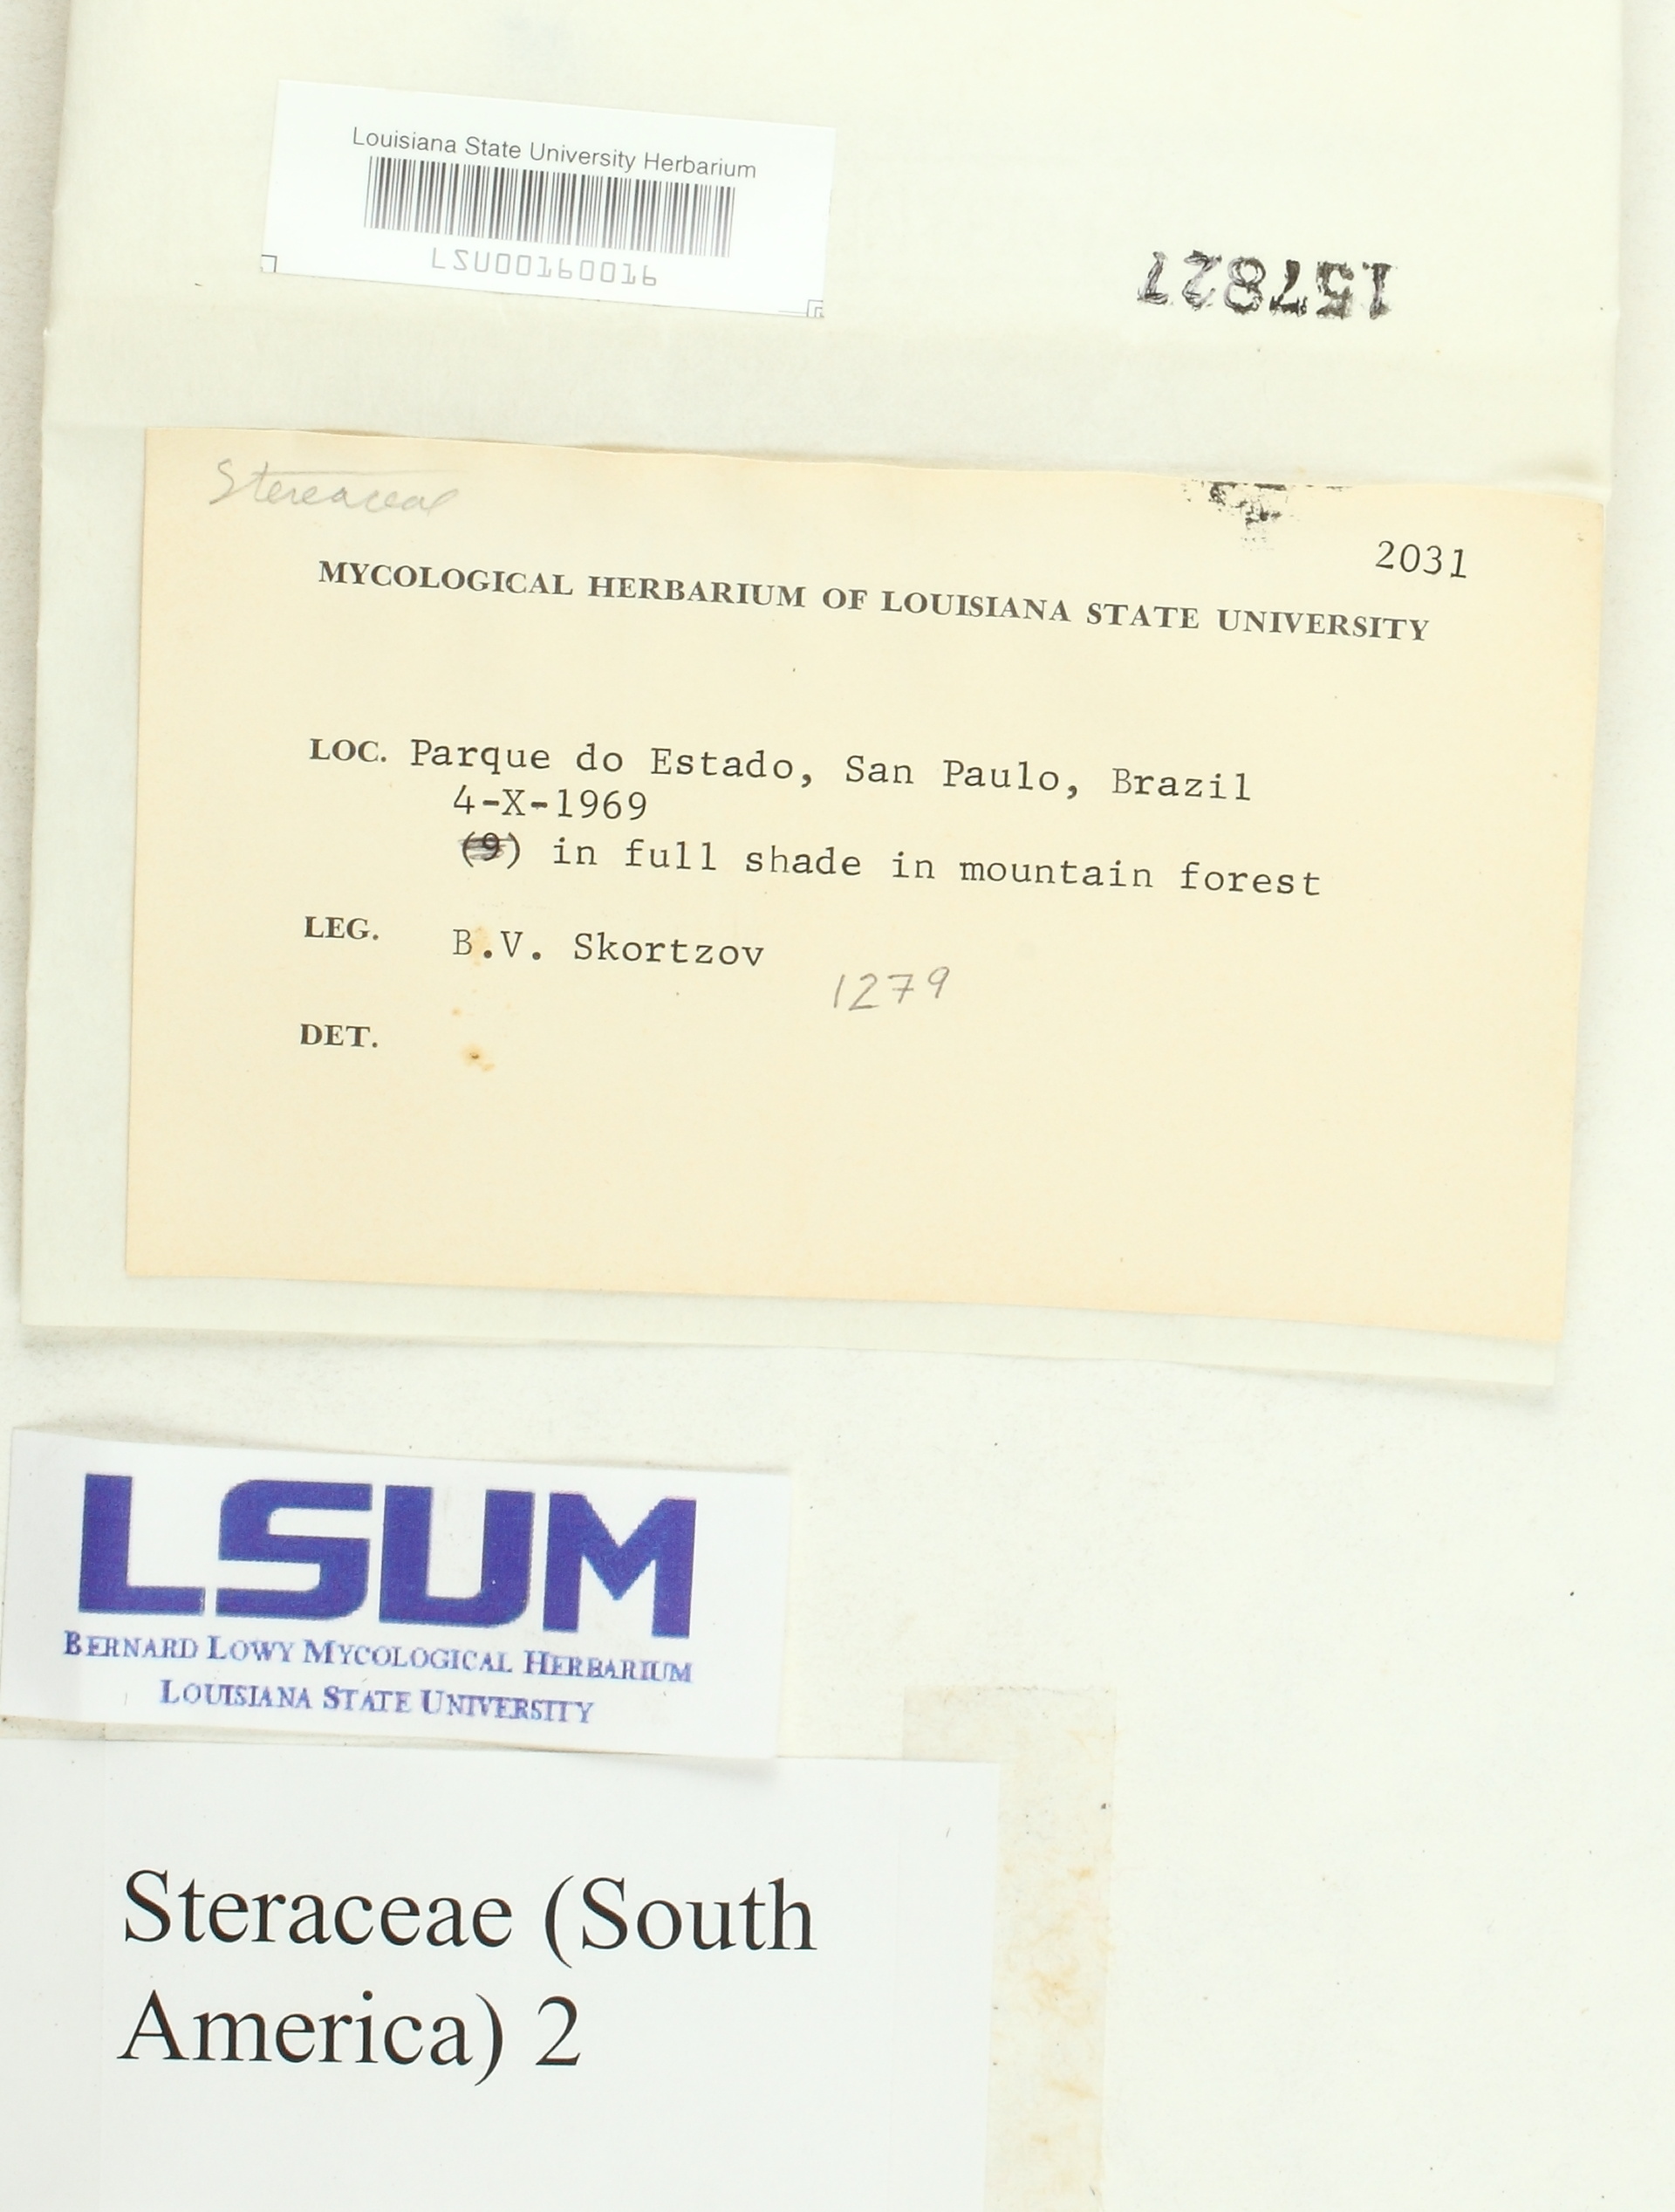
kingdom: Fungi
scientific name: Fungi
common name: Fungi
